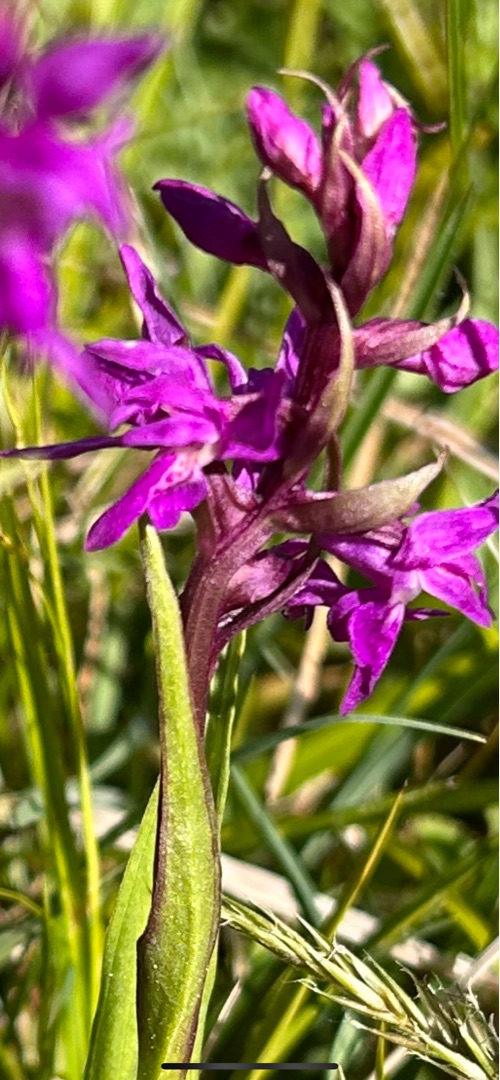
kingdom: Plantae
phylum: Tracheophyta
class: Liliopsida
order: Asparagales
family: Orchidaceae
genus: Orchis
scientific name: Orchis mascula
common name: Tyndakset gøgeurt
